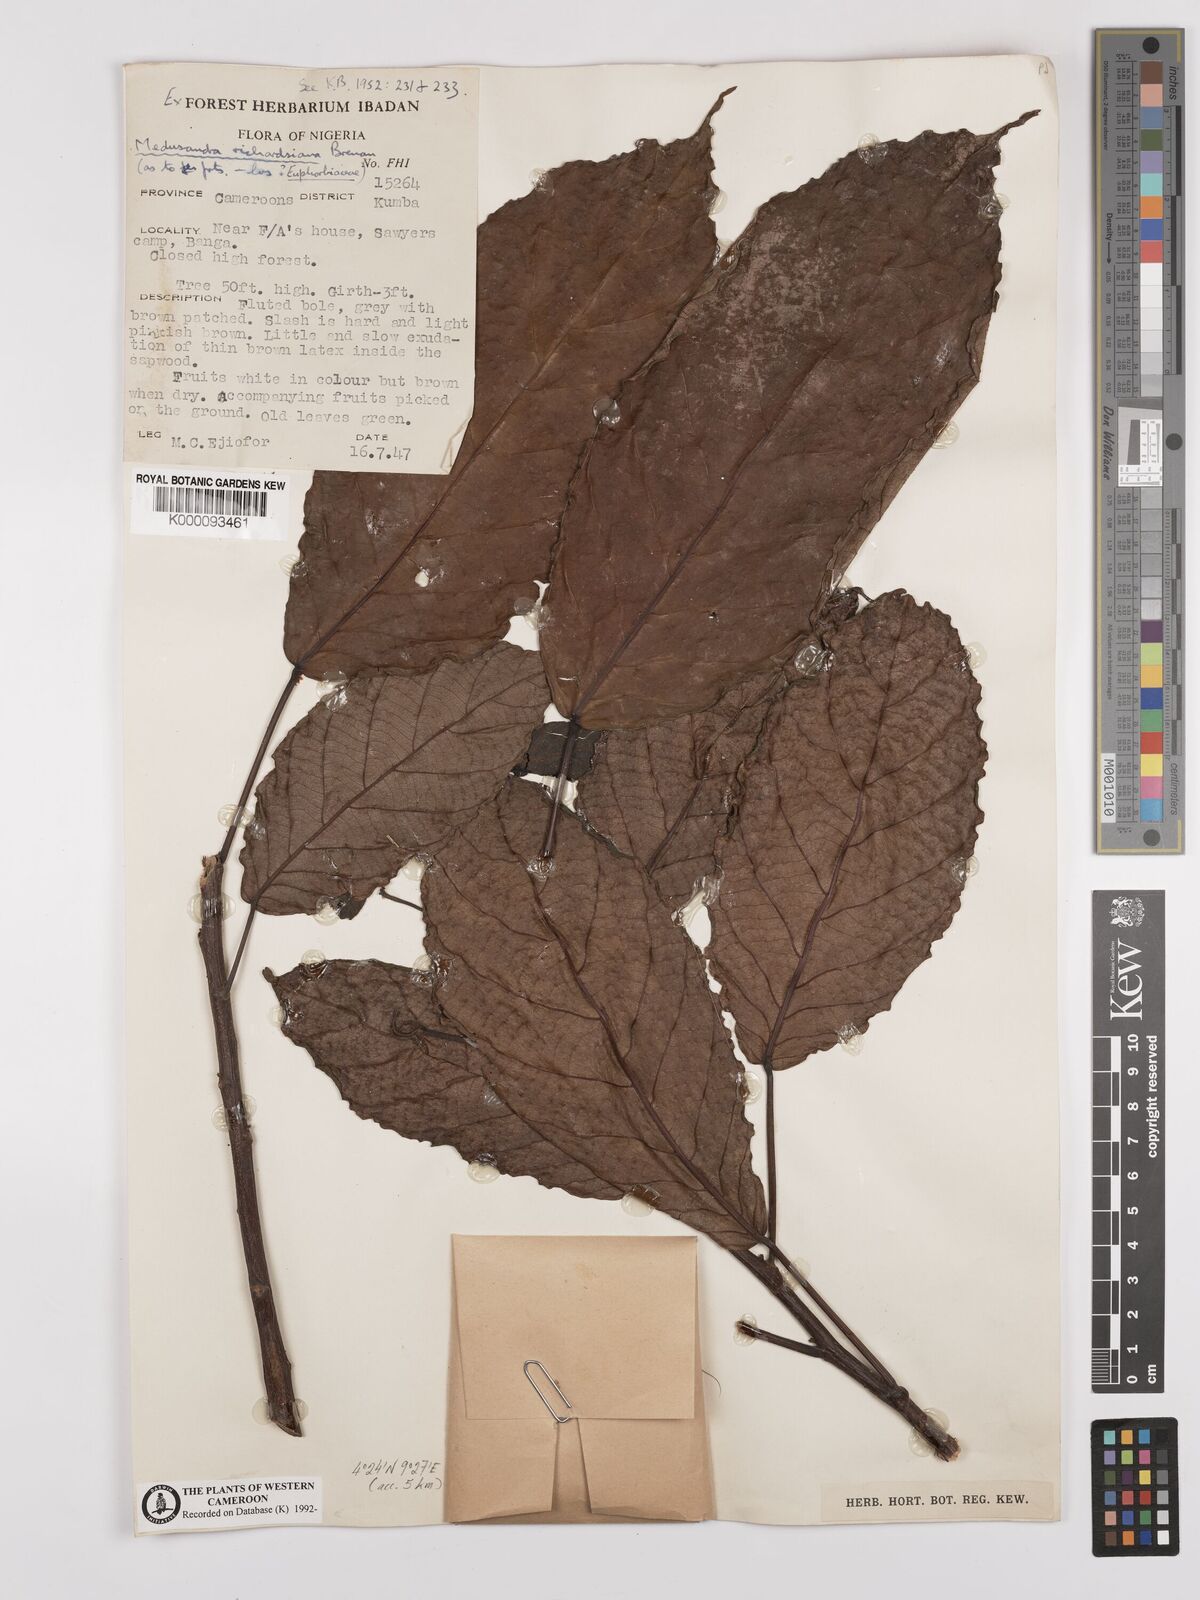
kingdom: Plantae
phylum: Tracheophyta
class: Magnoliopsida
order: Saxifragales
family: Peridiscaceae
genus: Medusandra
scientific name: Medusandra richardsiana
